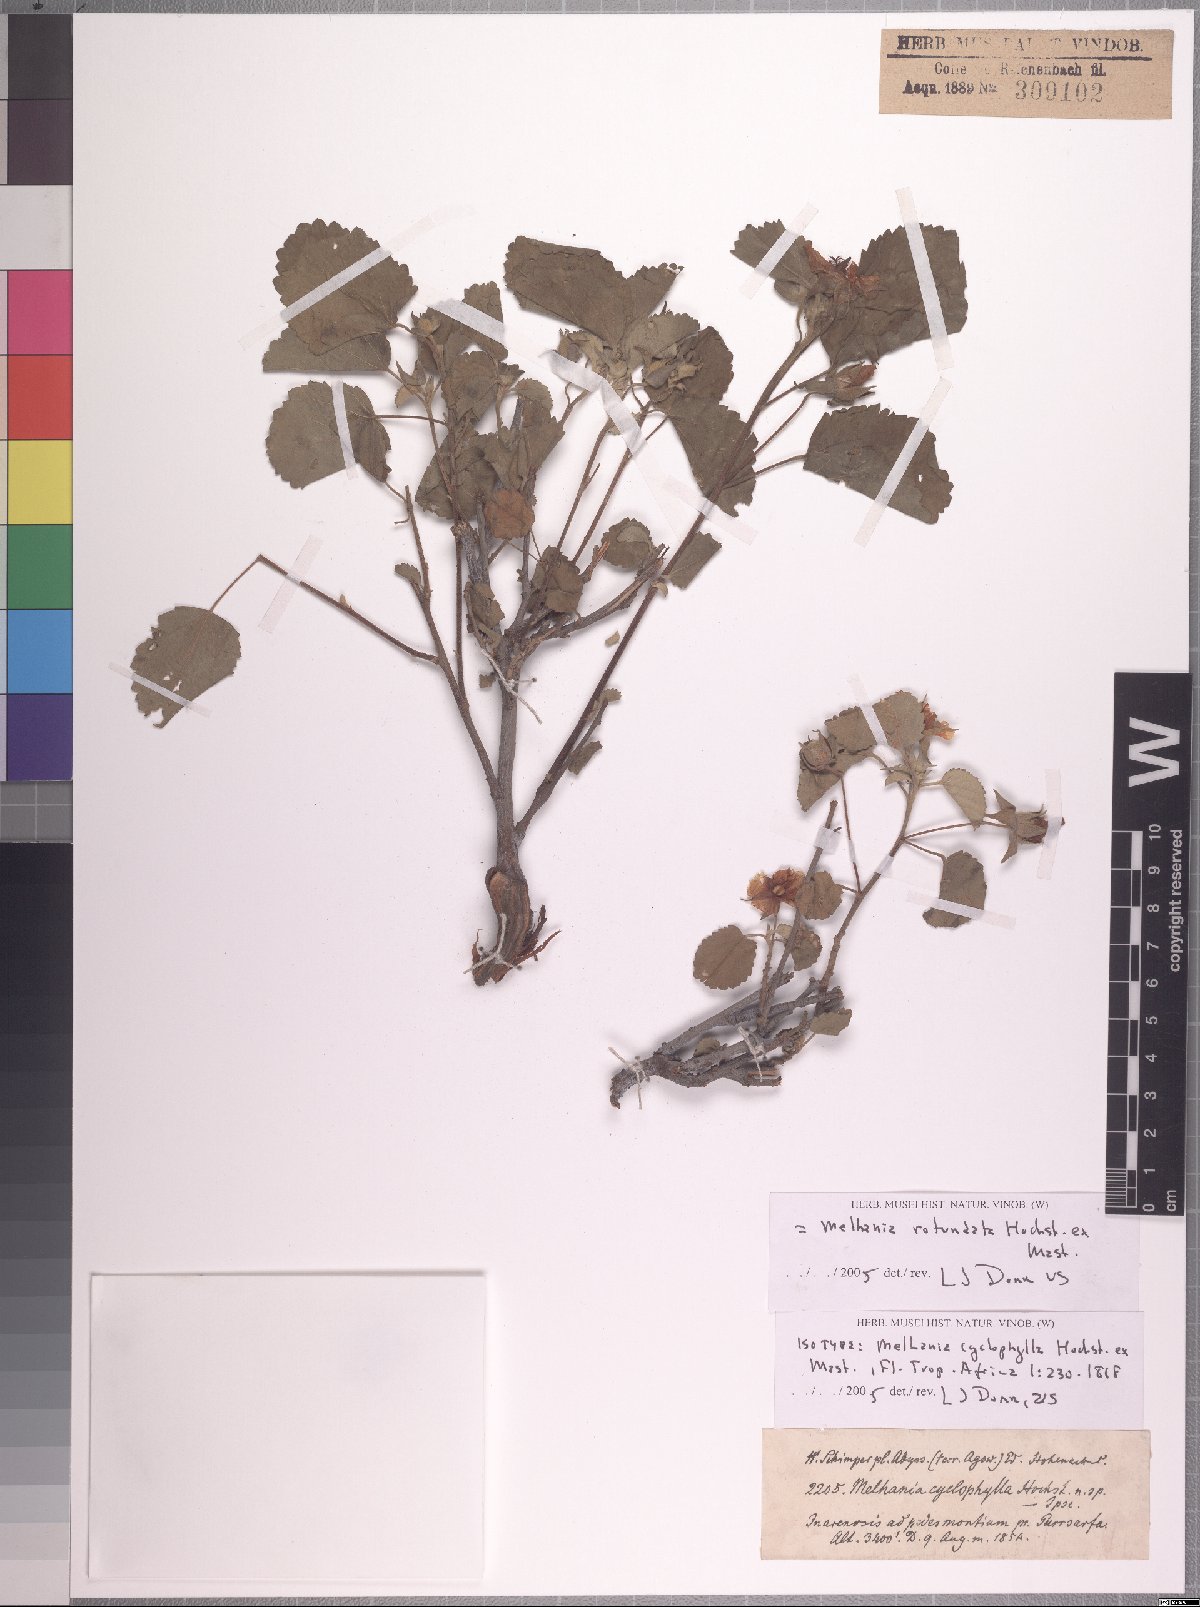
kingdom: Plantae
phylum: Tracheophyta
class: Magnoliopsida
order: Malvales
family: Malvaceae
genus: Melhania
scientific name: Melhania rotundata
